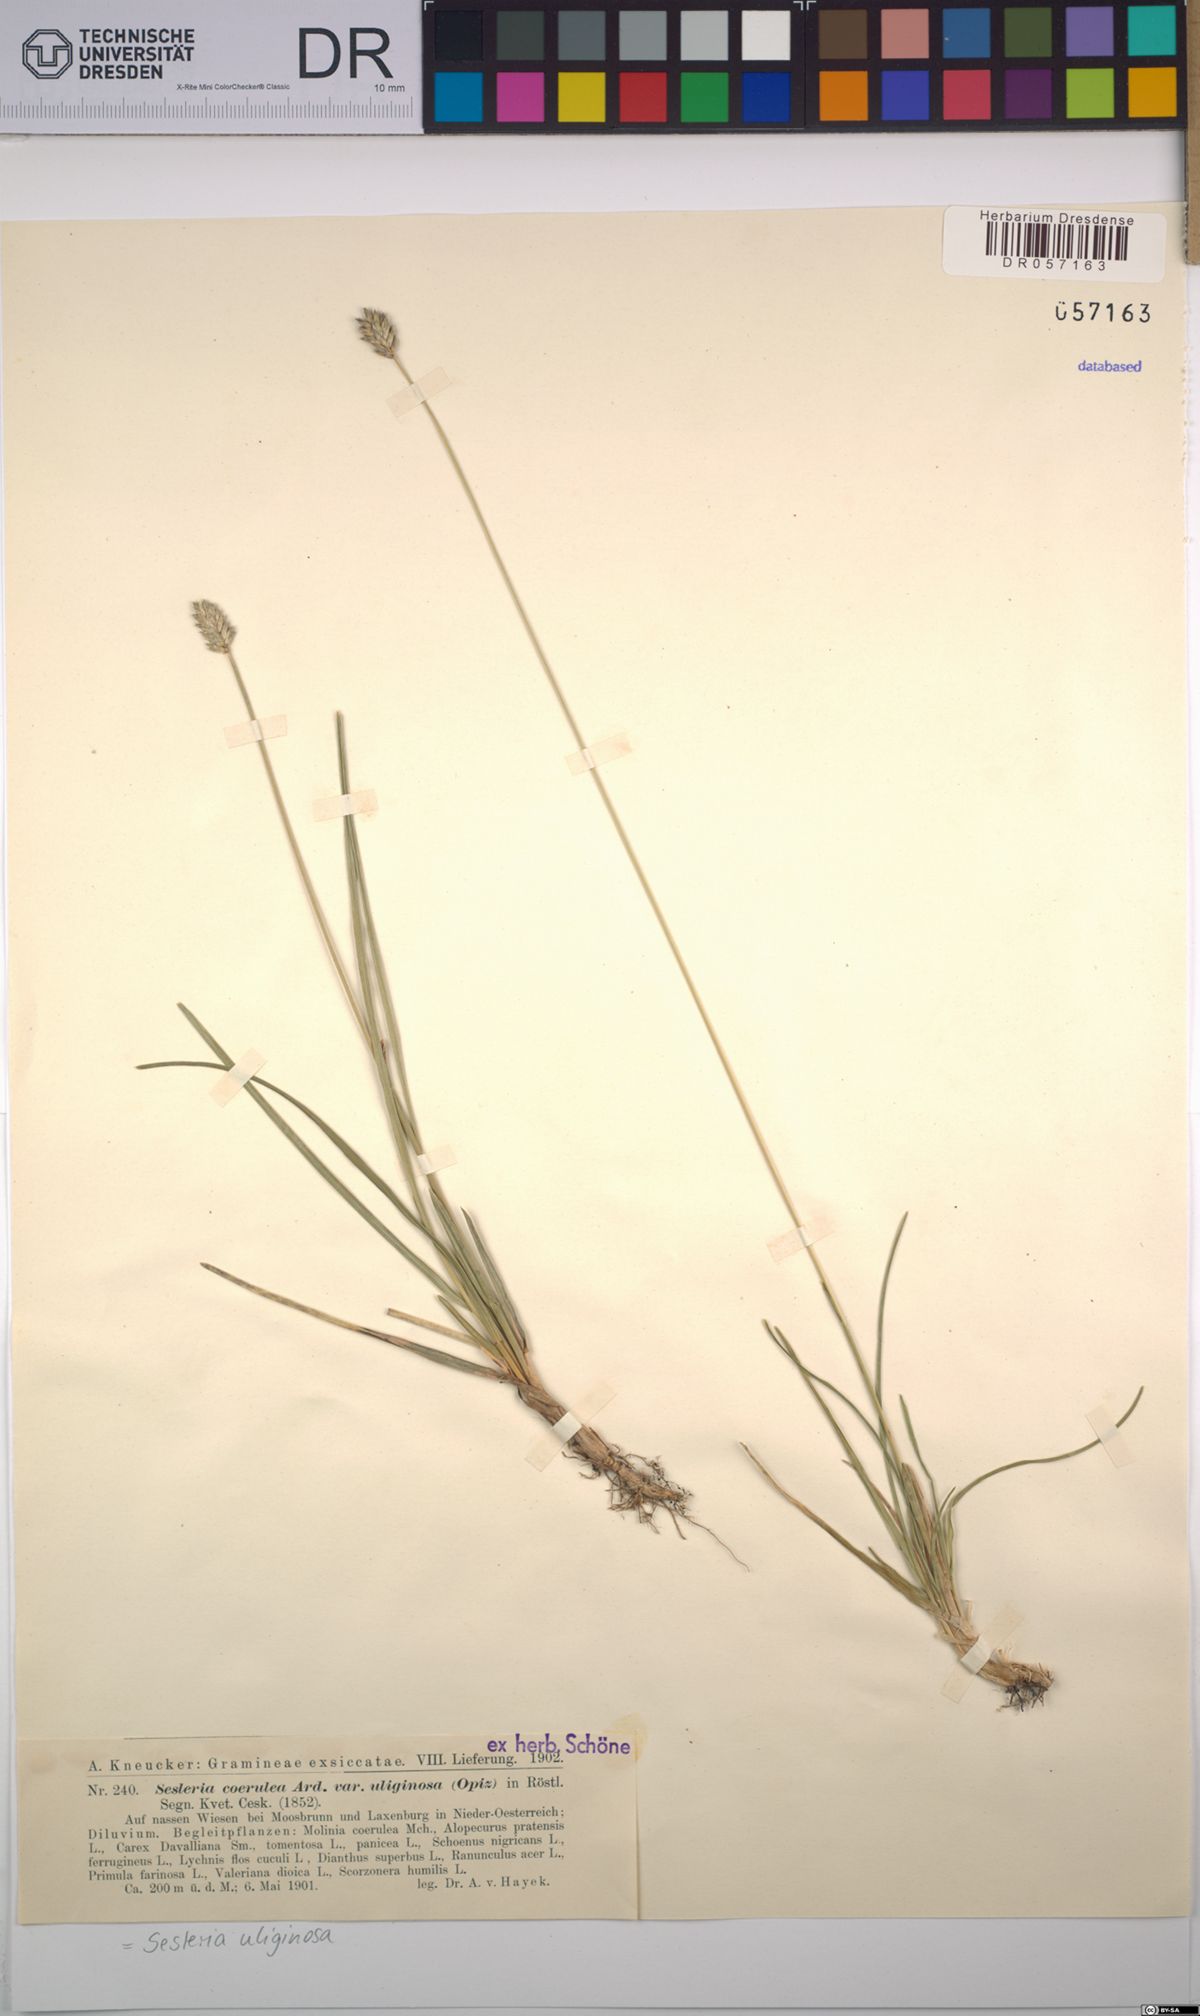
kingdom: Plantae
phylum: Tracheophyta
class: Liliopsida
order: Poales
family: Poaceae
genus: Sesleria
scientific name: Sesleria uliginosa
